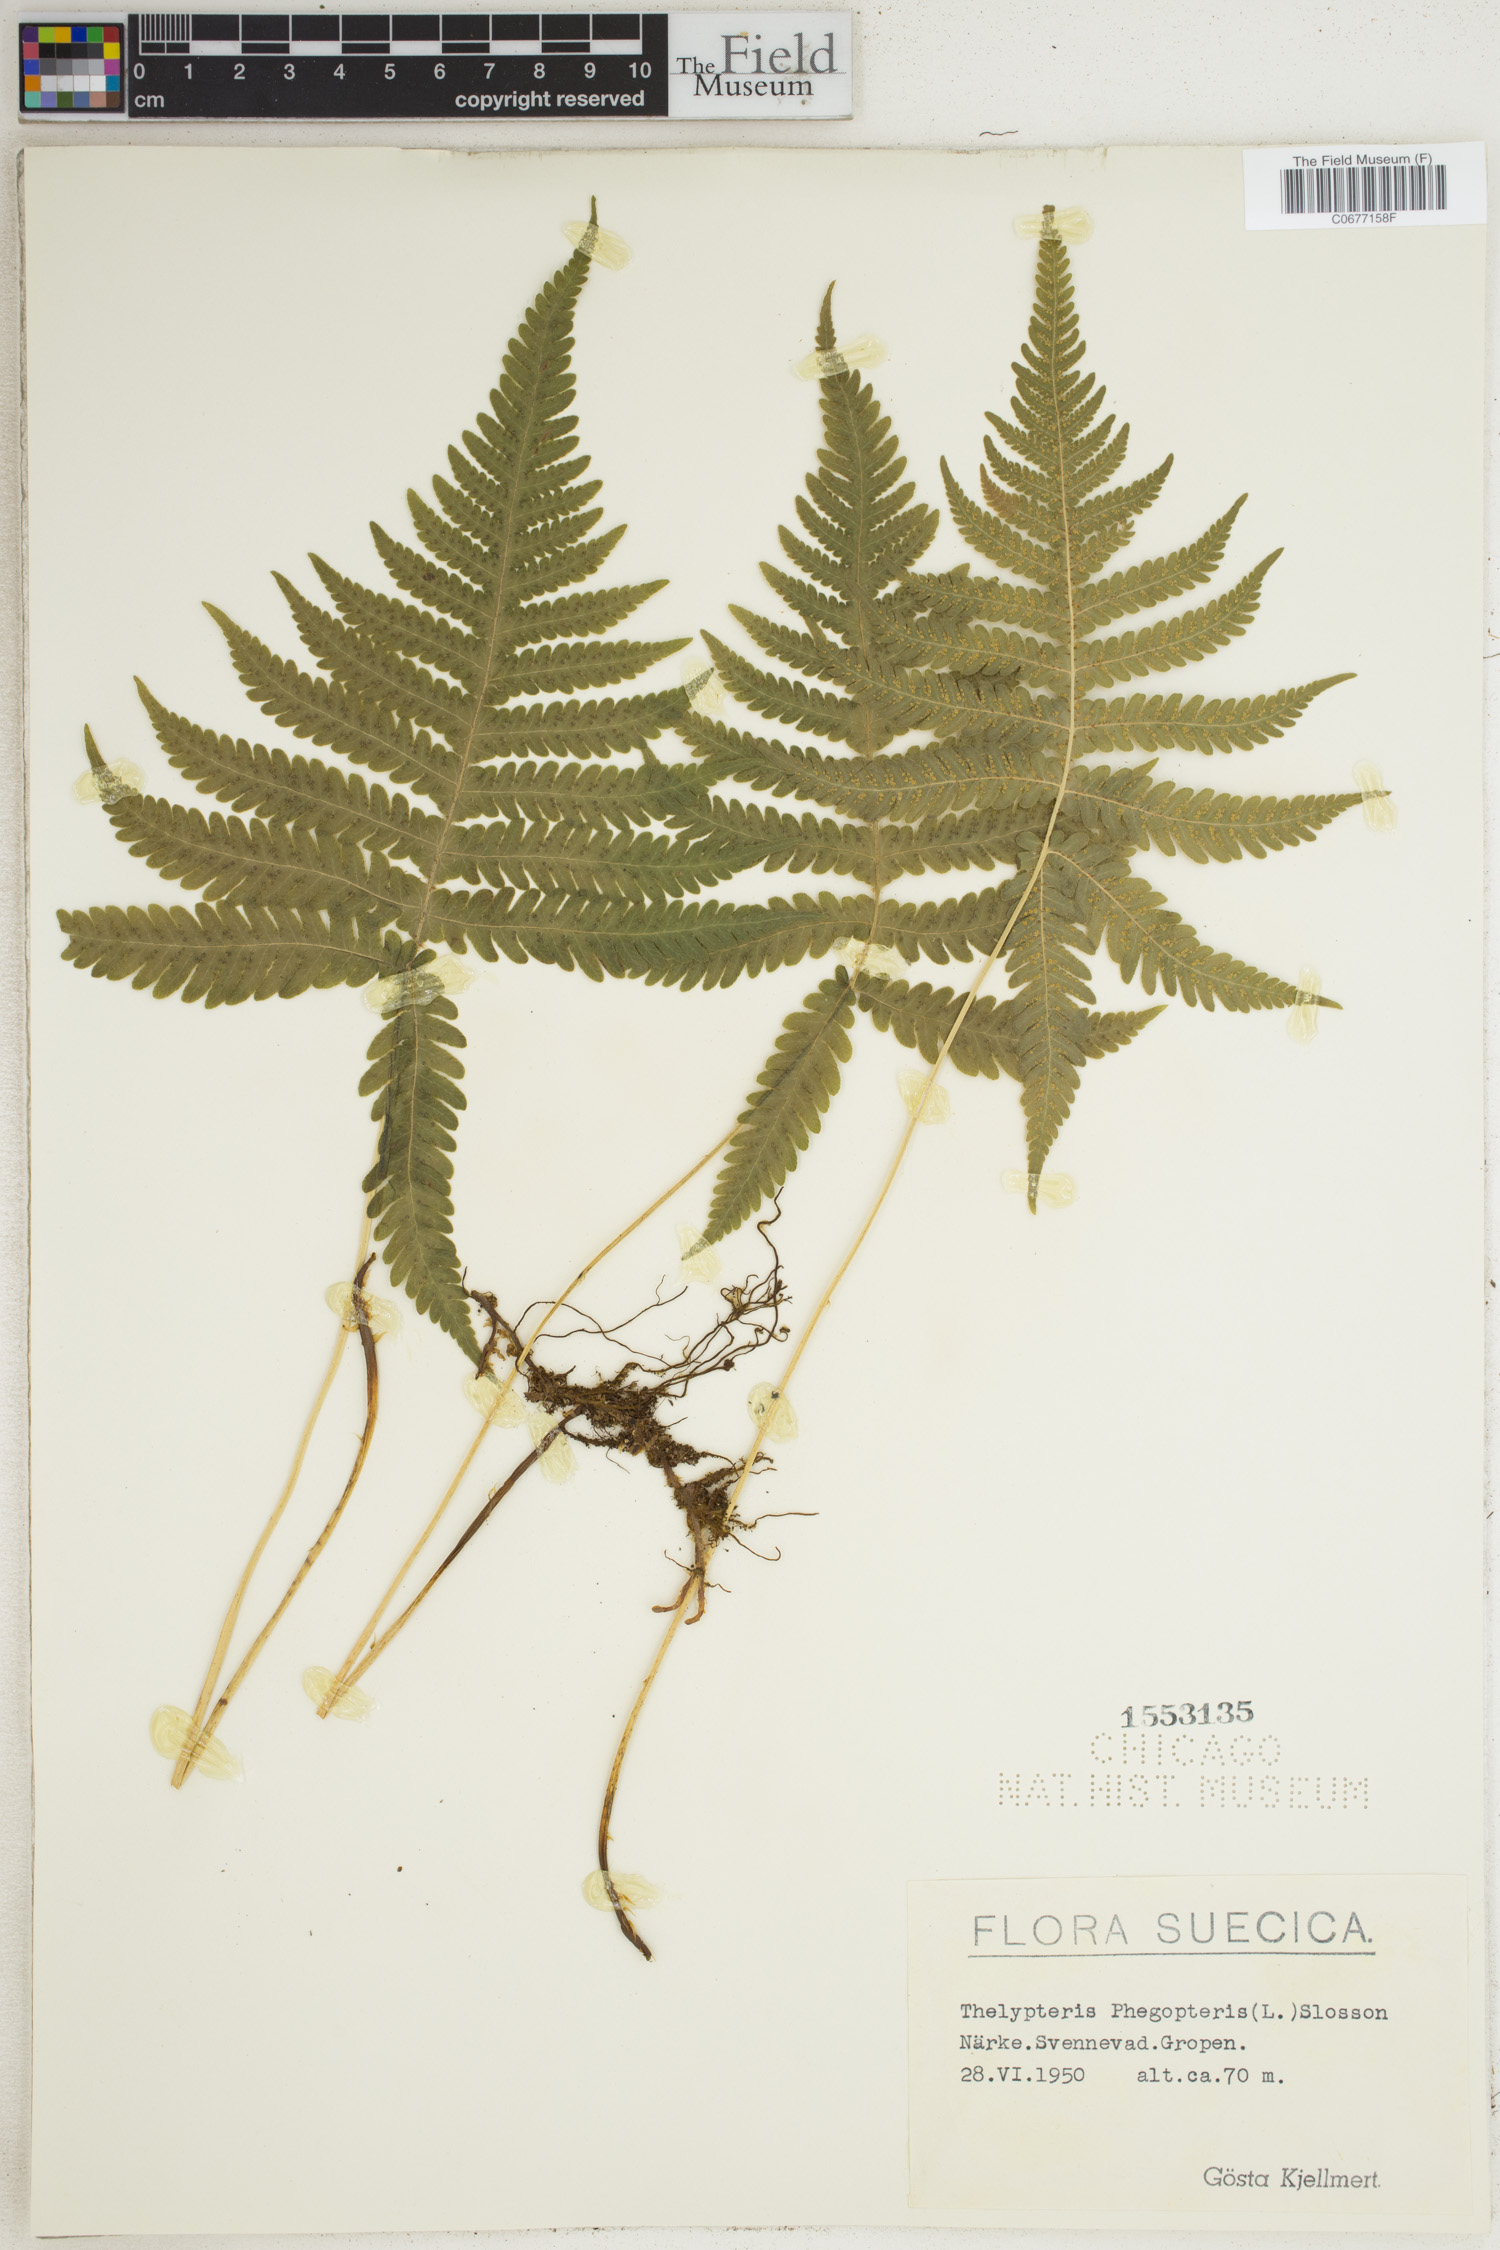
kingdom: Plantae
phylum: Tracheophyta
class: Polypodiopsida
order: Polypodiales
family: Thelypteridaceae
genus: Phegopteris
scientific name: Phegopteris connectilis
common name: Beech fern
